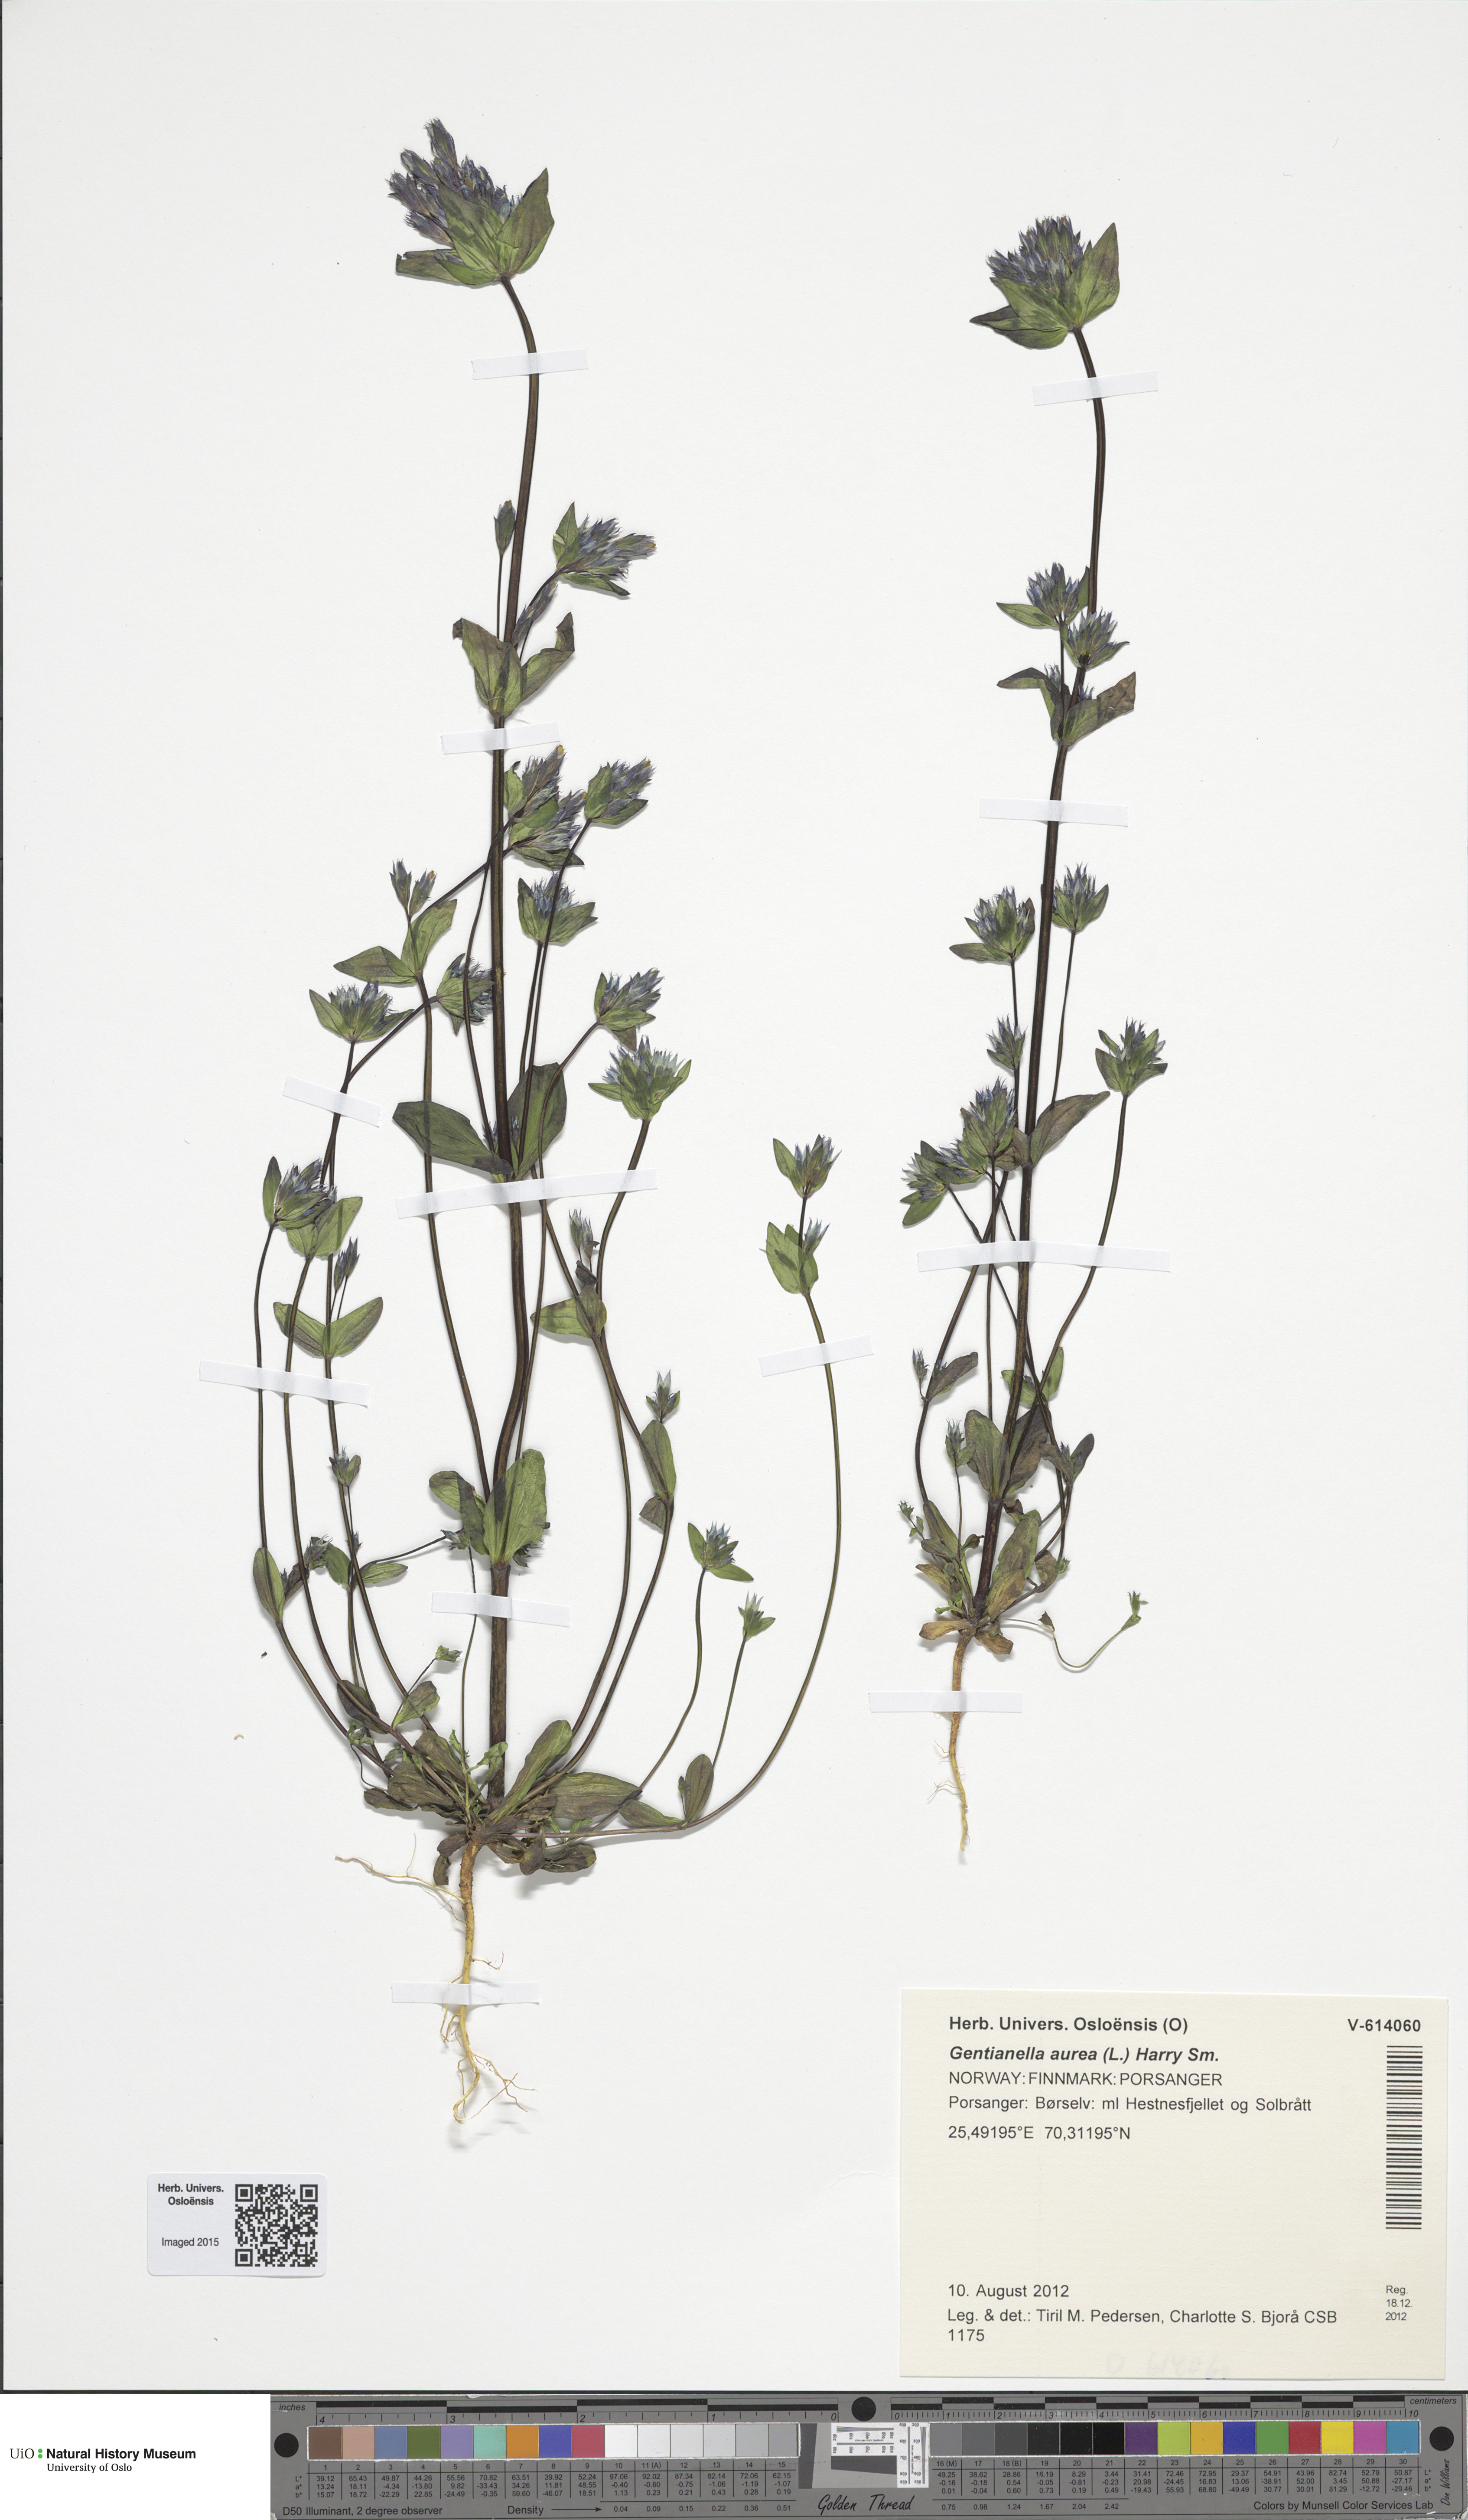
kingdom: Plantae
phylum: Tracheophyta
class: Magnoliopsida
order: Gentianales
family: Gentianaceae
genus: Gentianella
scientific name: Gentianella aurea
